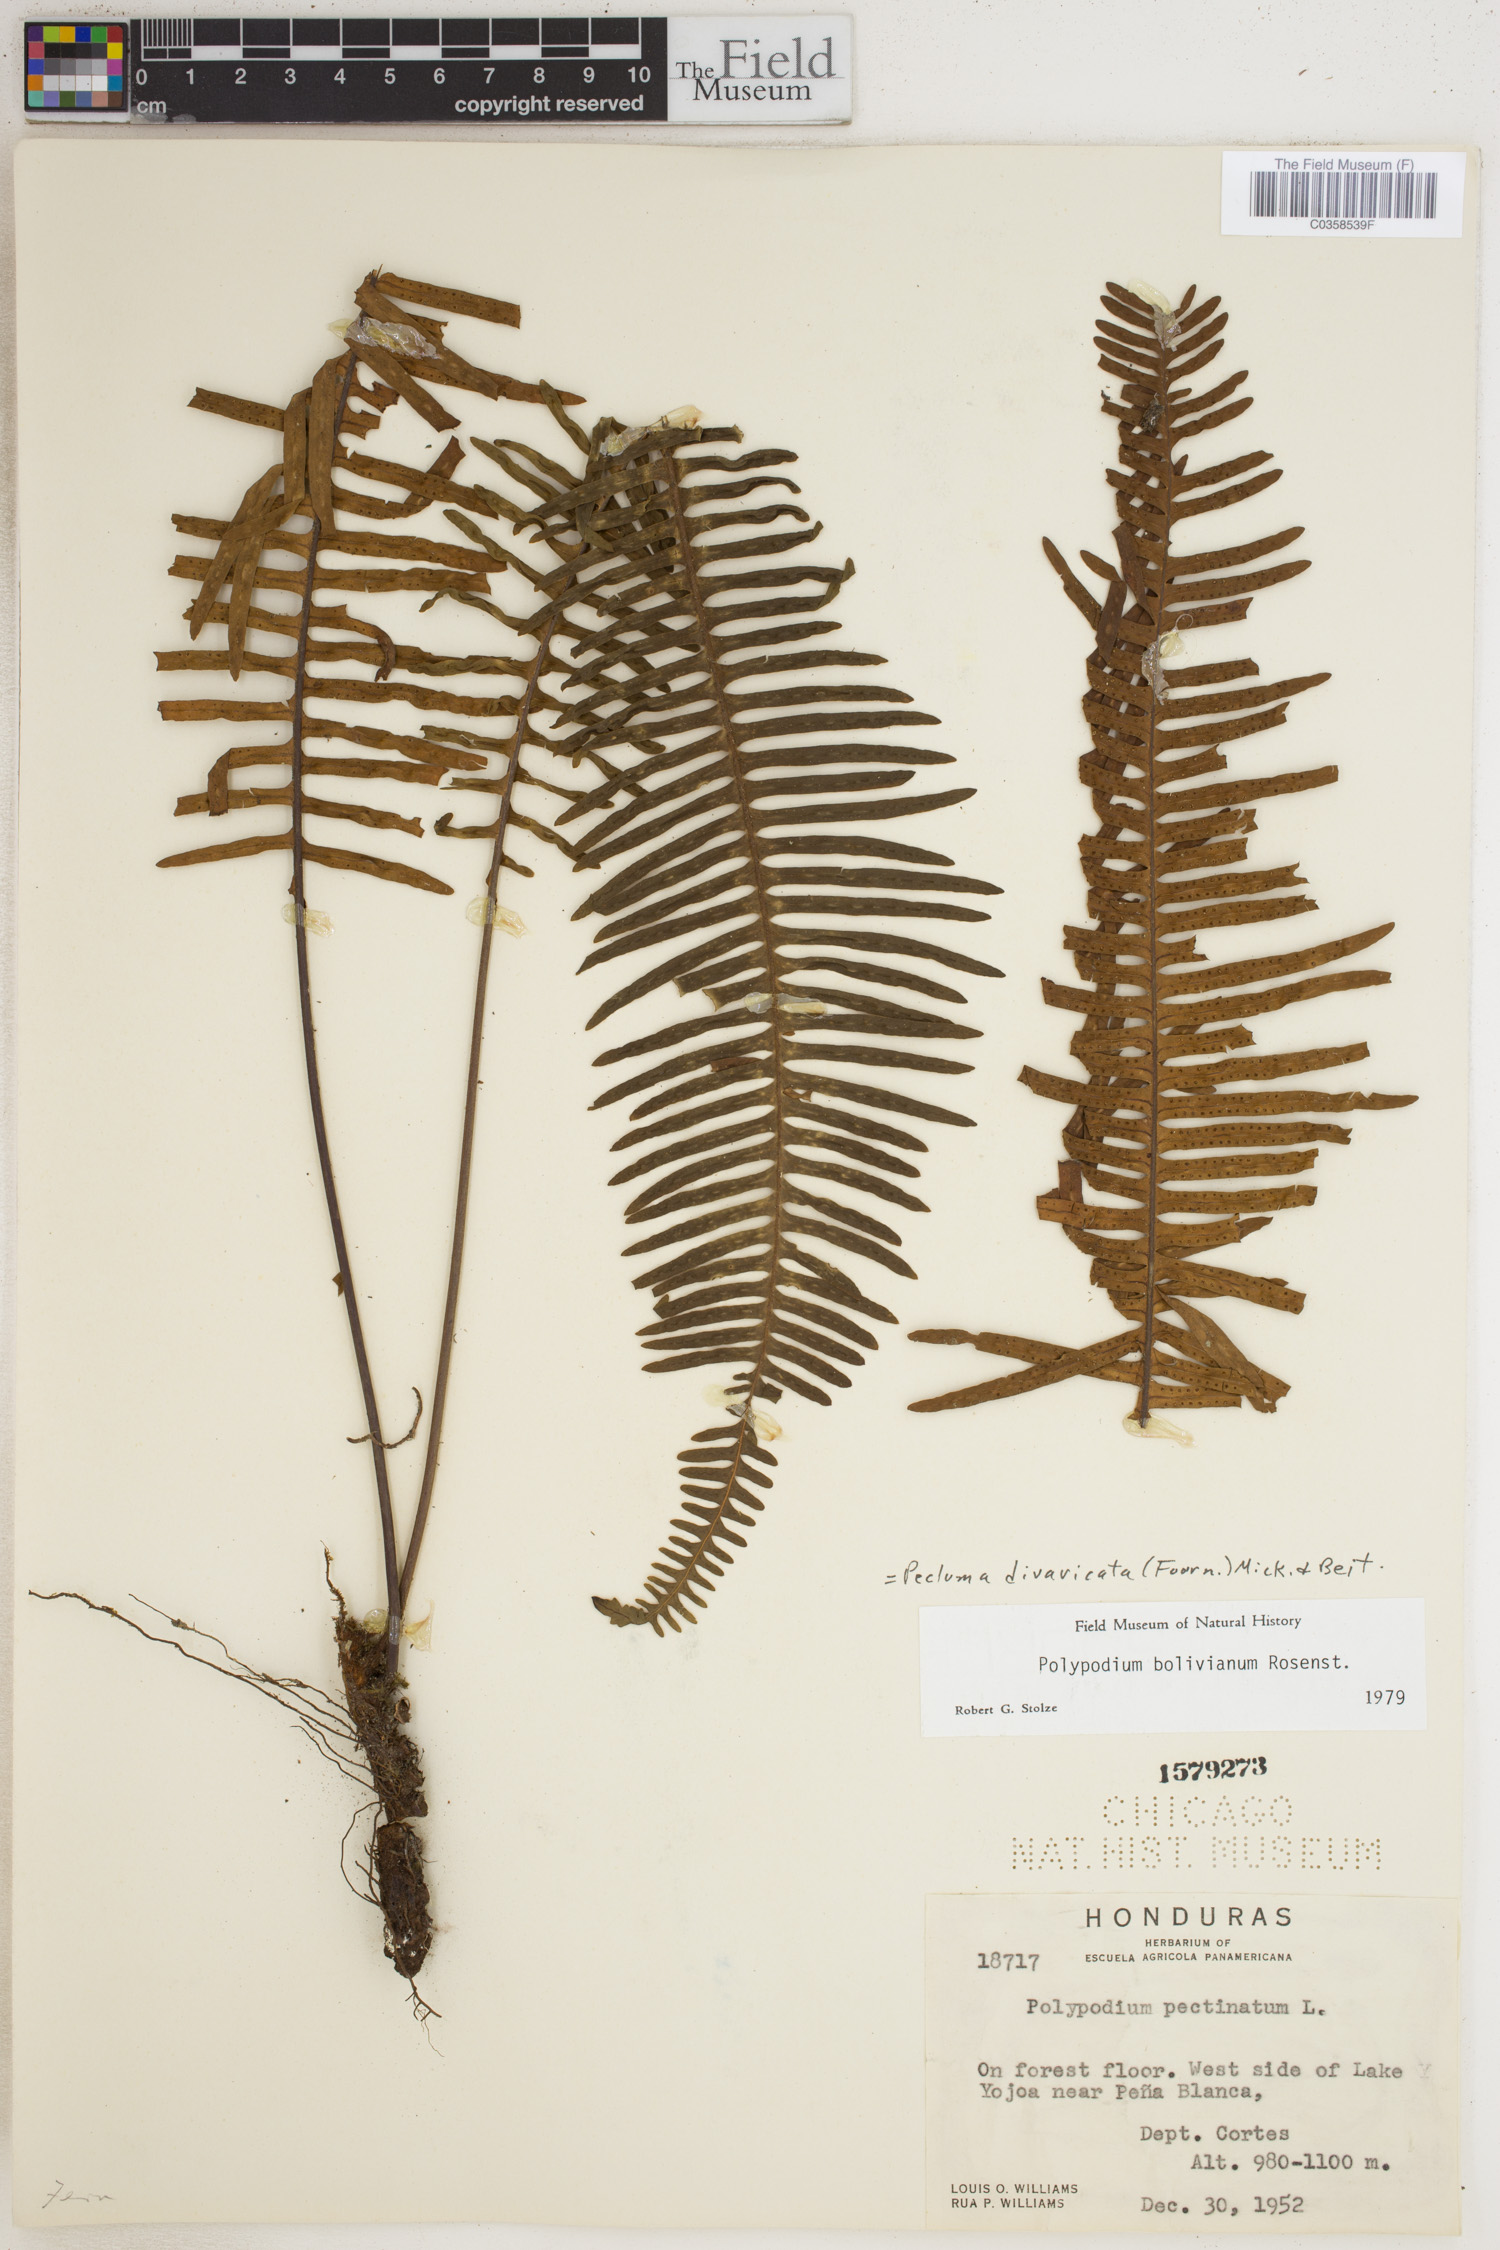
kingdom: Plantae
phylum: Tracheophyta
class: Polypodiopsida
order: Polypodiales
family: Polypodiaceae
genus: Pecluma
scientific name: Pecluma divaricata
